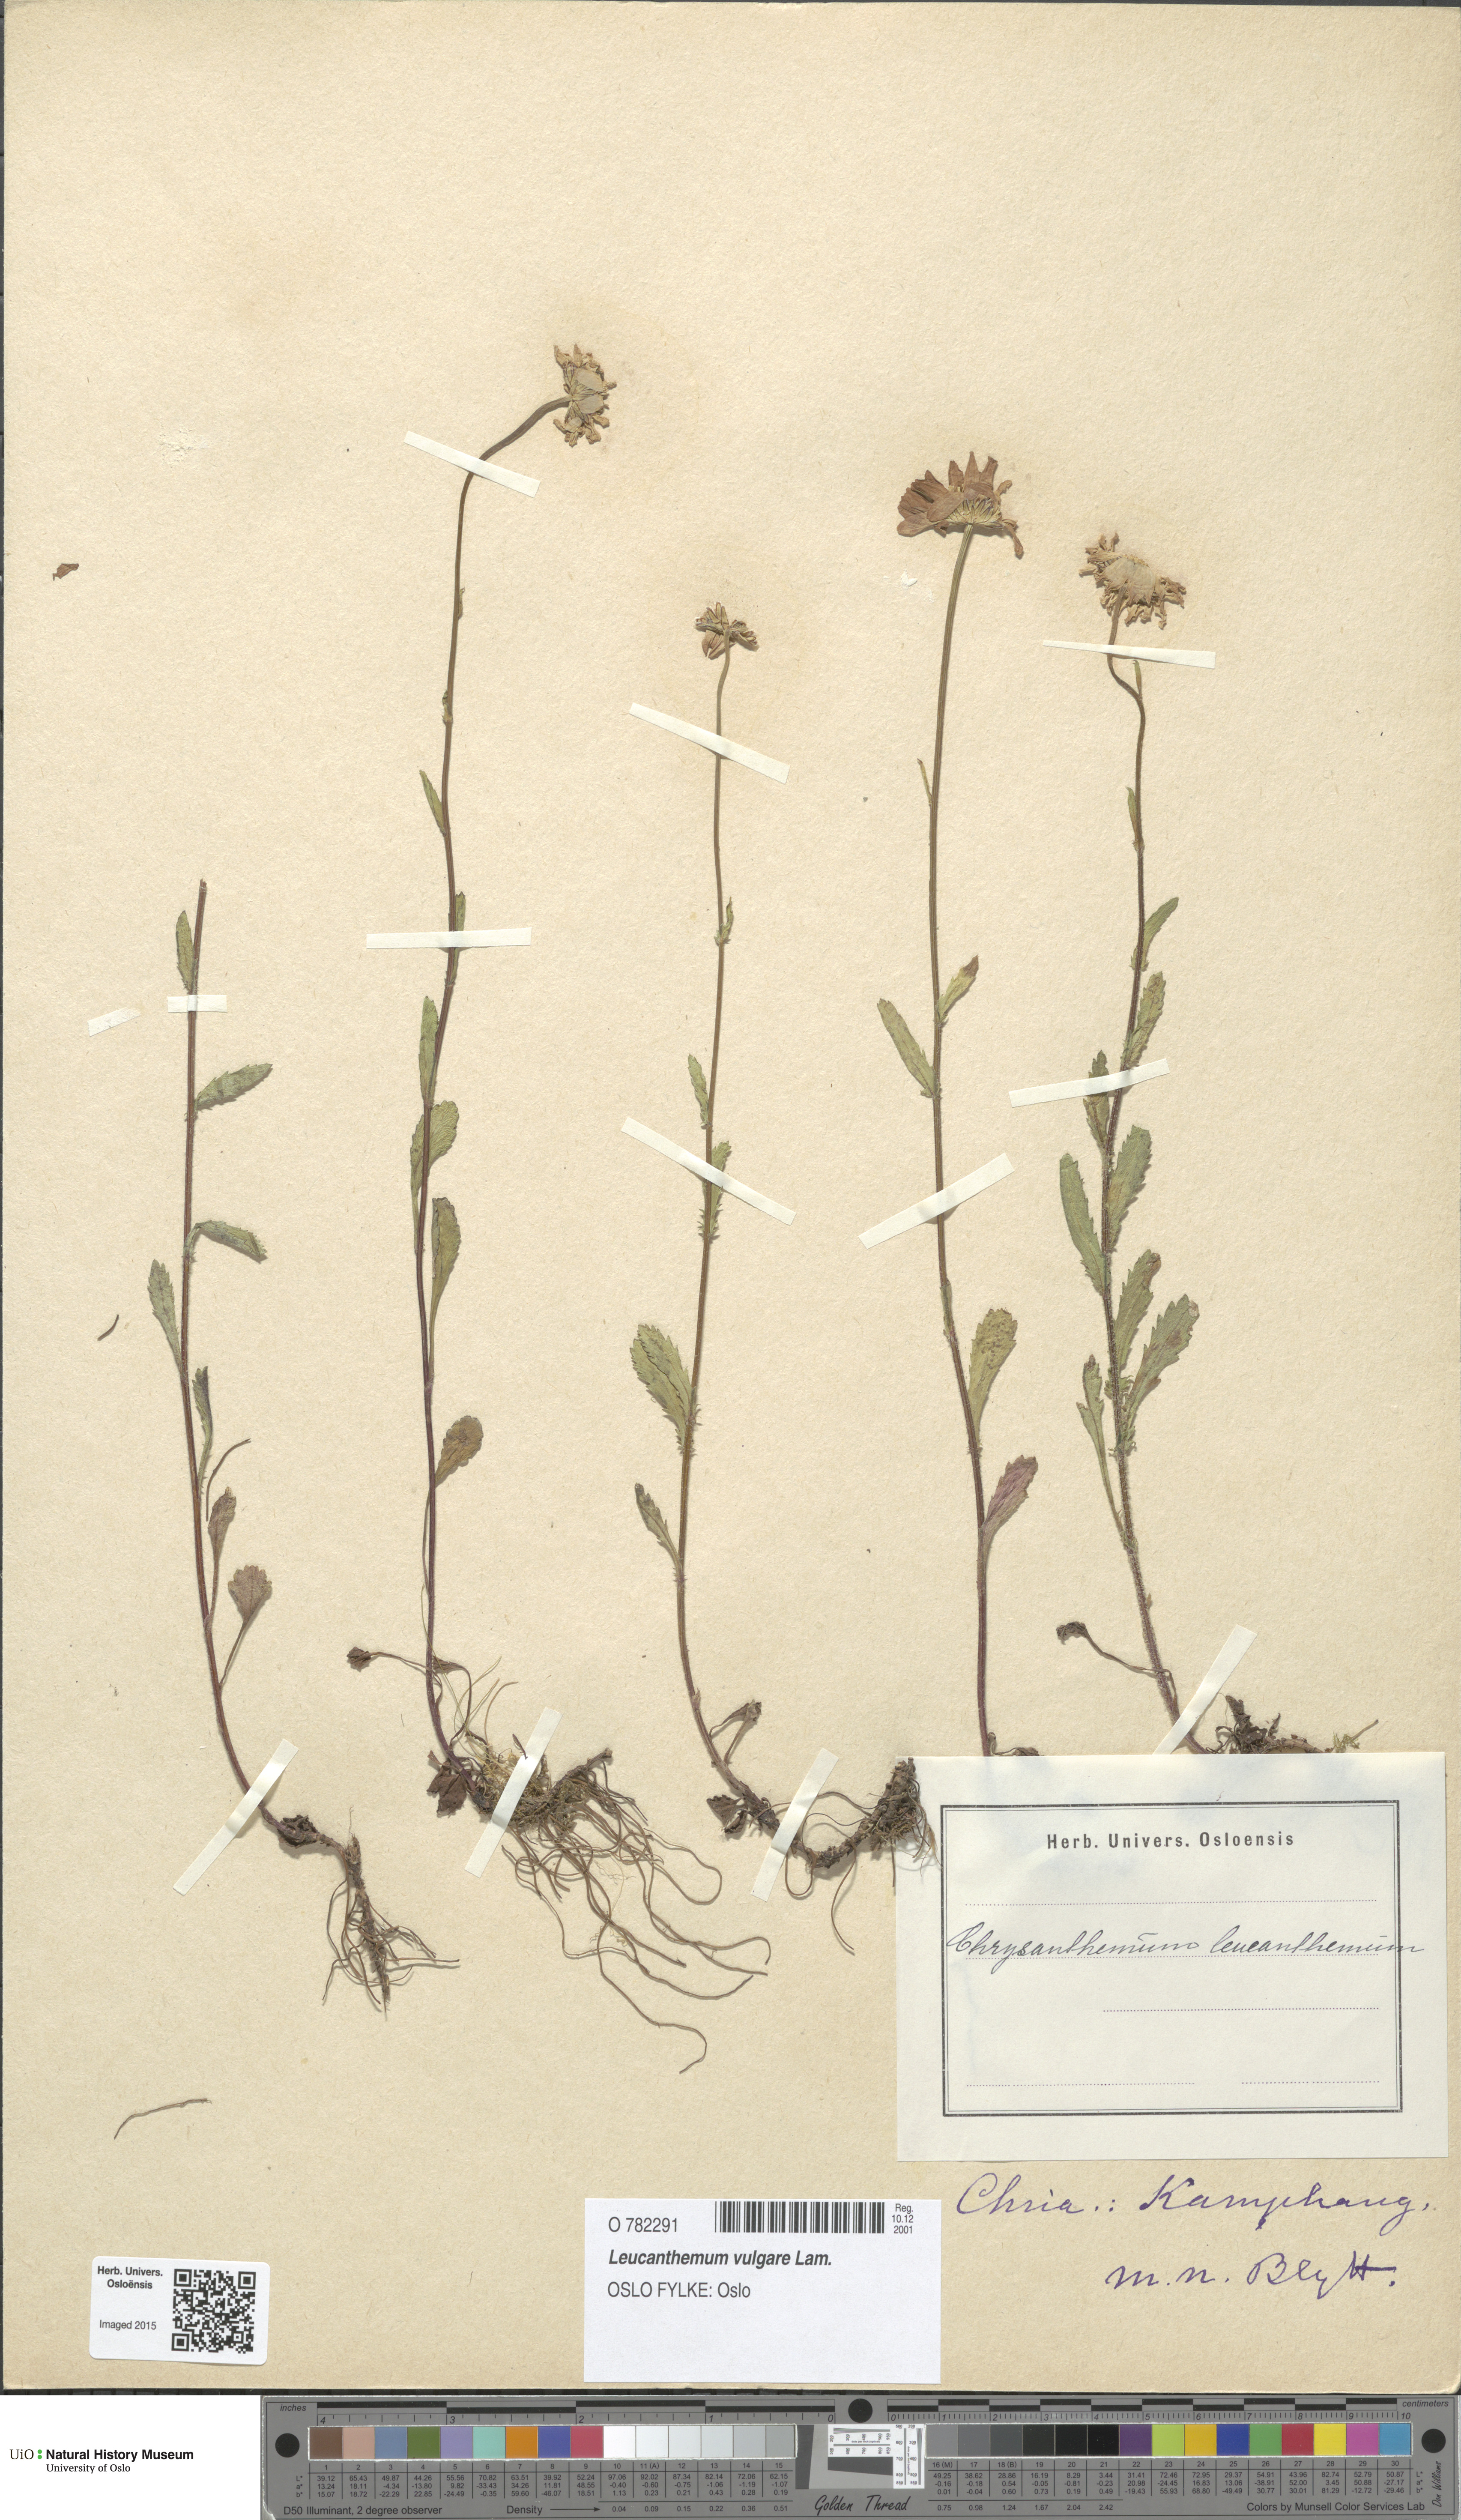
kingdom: Plantae
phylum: Tracheophyta
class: Magnoliopsida
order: Asterales
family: Asteraceae
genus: Leucanthemum
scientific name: Leucanthemum vulgare
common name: Oxeye daisy
